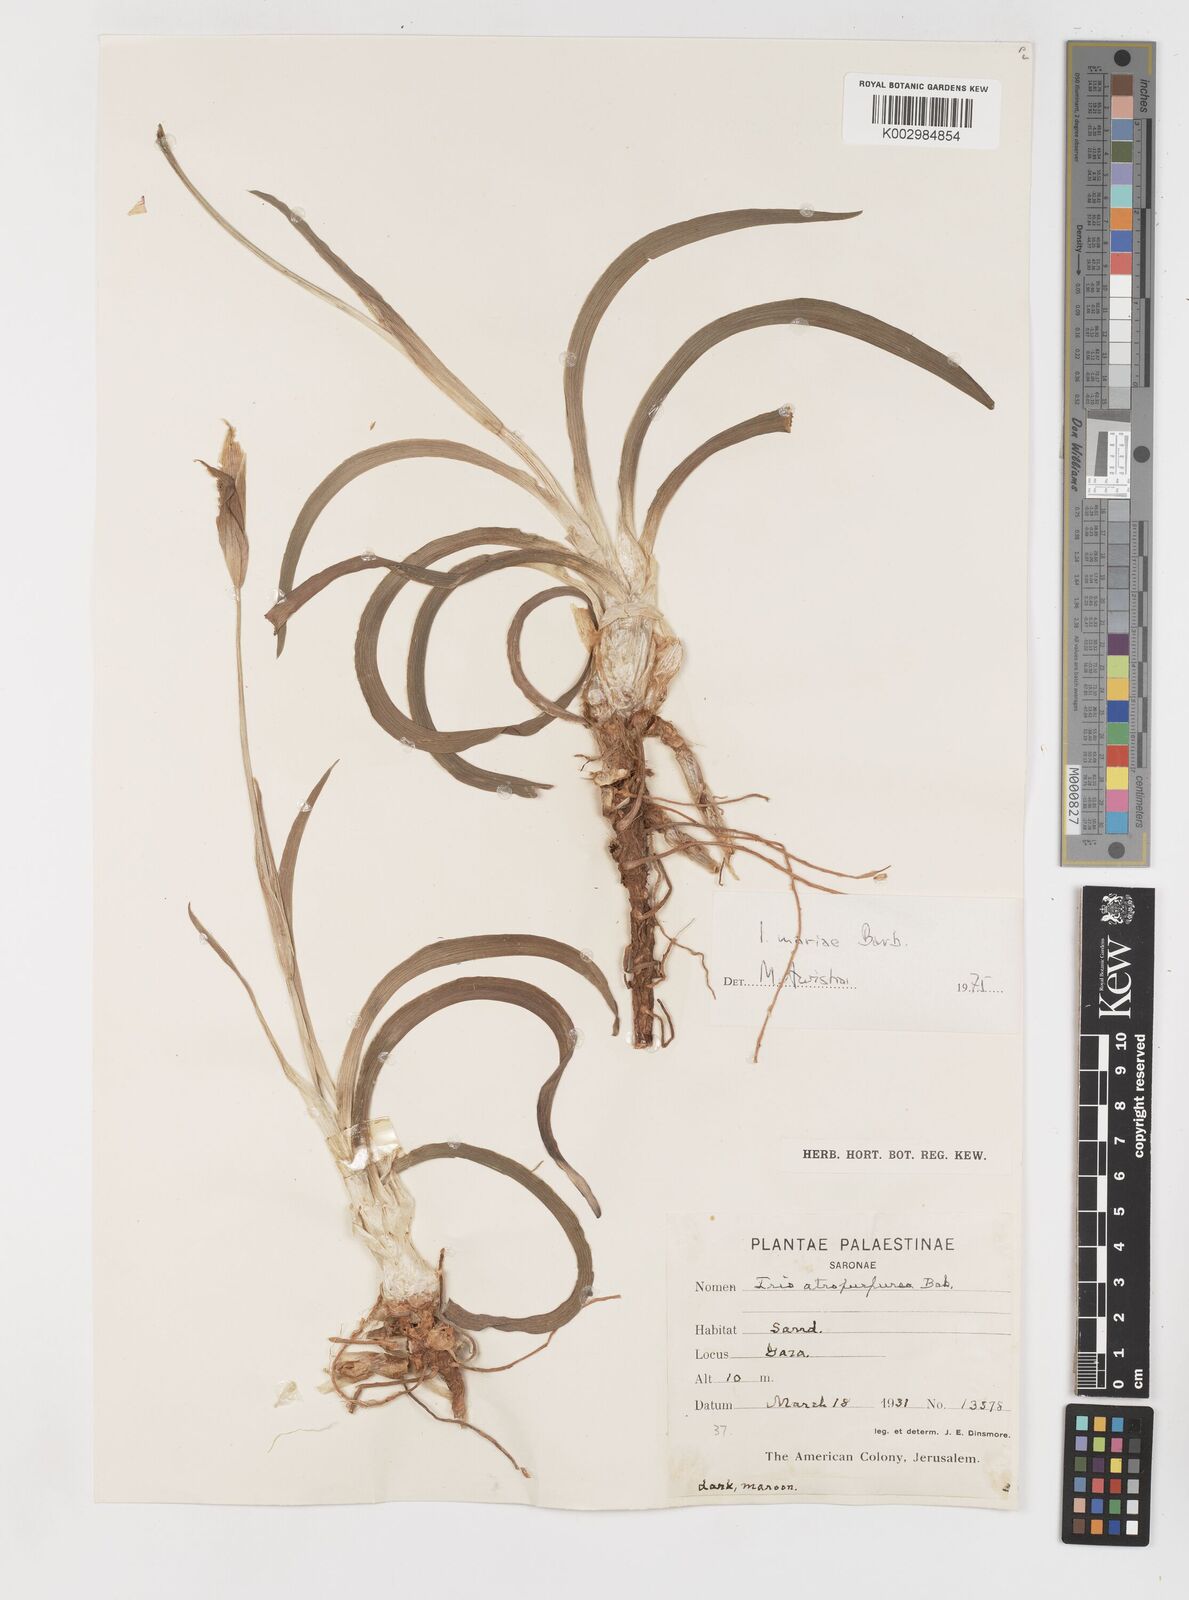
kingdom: Plantae
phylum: Tracheophyta
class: Liliopsida
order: Asparagales
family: Iridaceae
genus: Iris
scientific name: Iris atropurpurea
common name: Coastal iris
